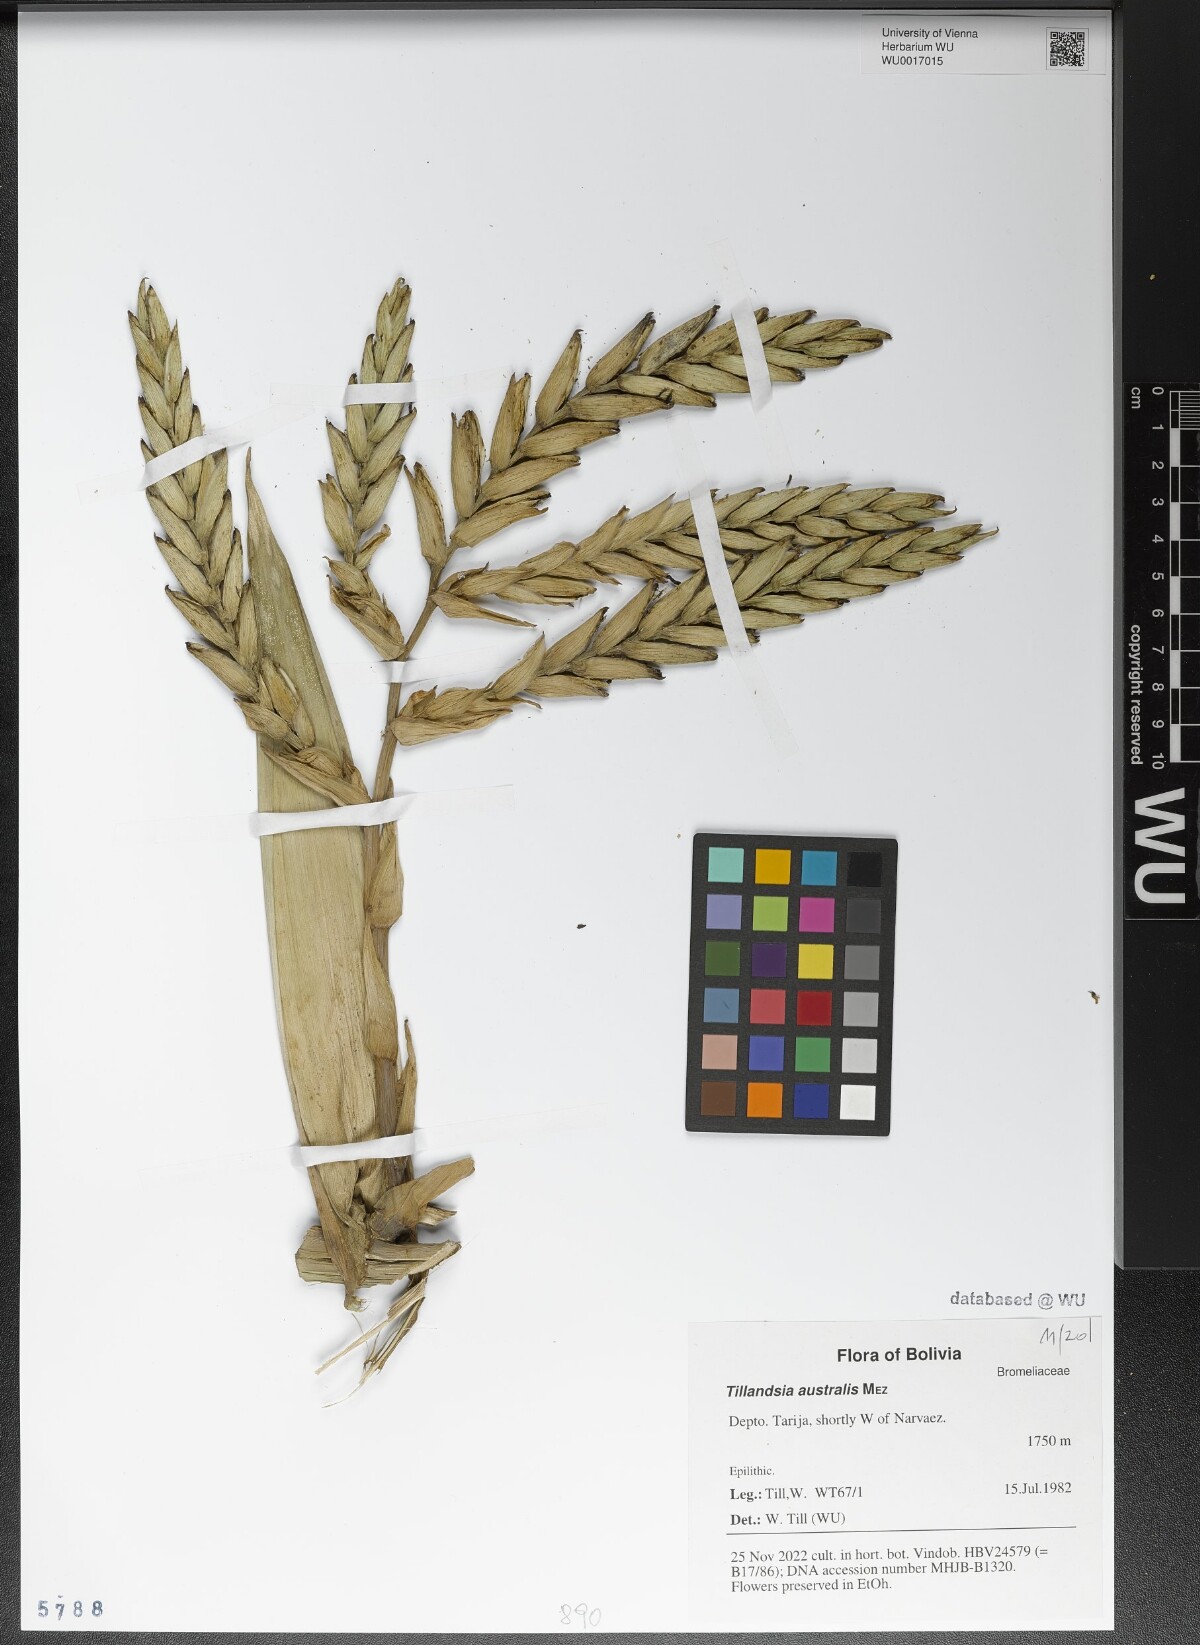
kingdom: Plantae
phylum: Tracheophyta
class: Liliopsida
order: Poales
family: Bromeliaceae
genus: Tillandsia
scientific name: Tillandsia australis
